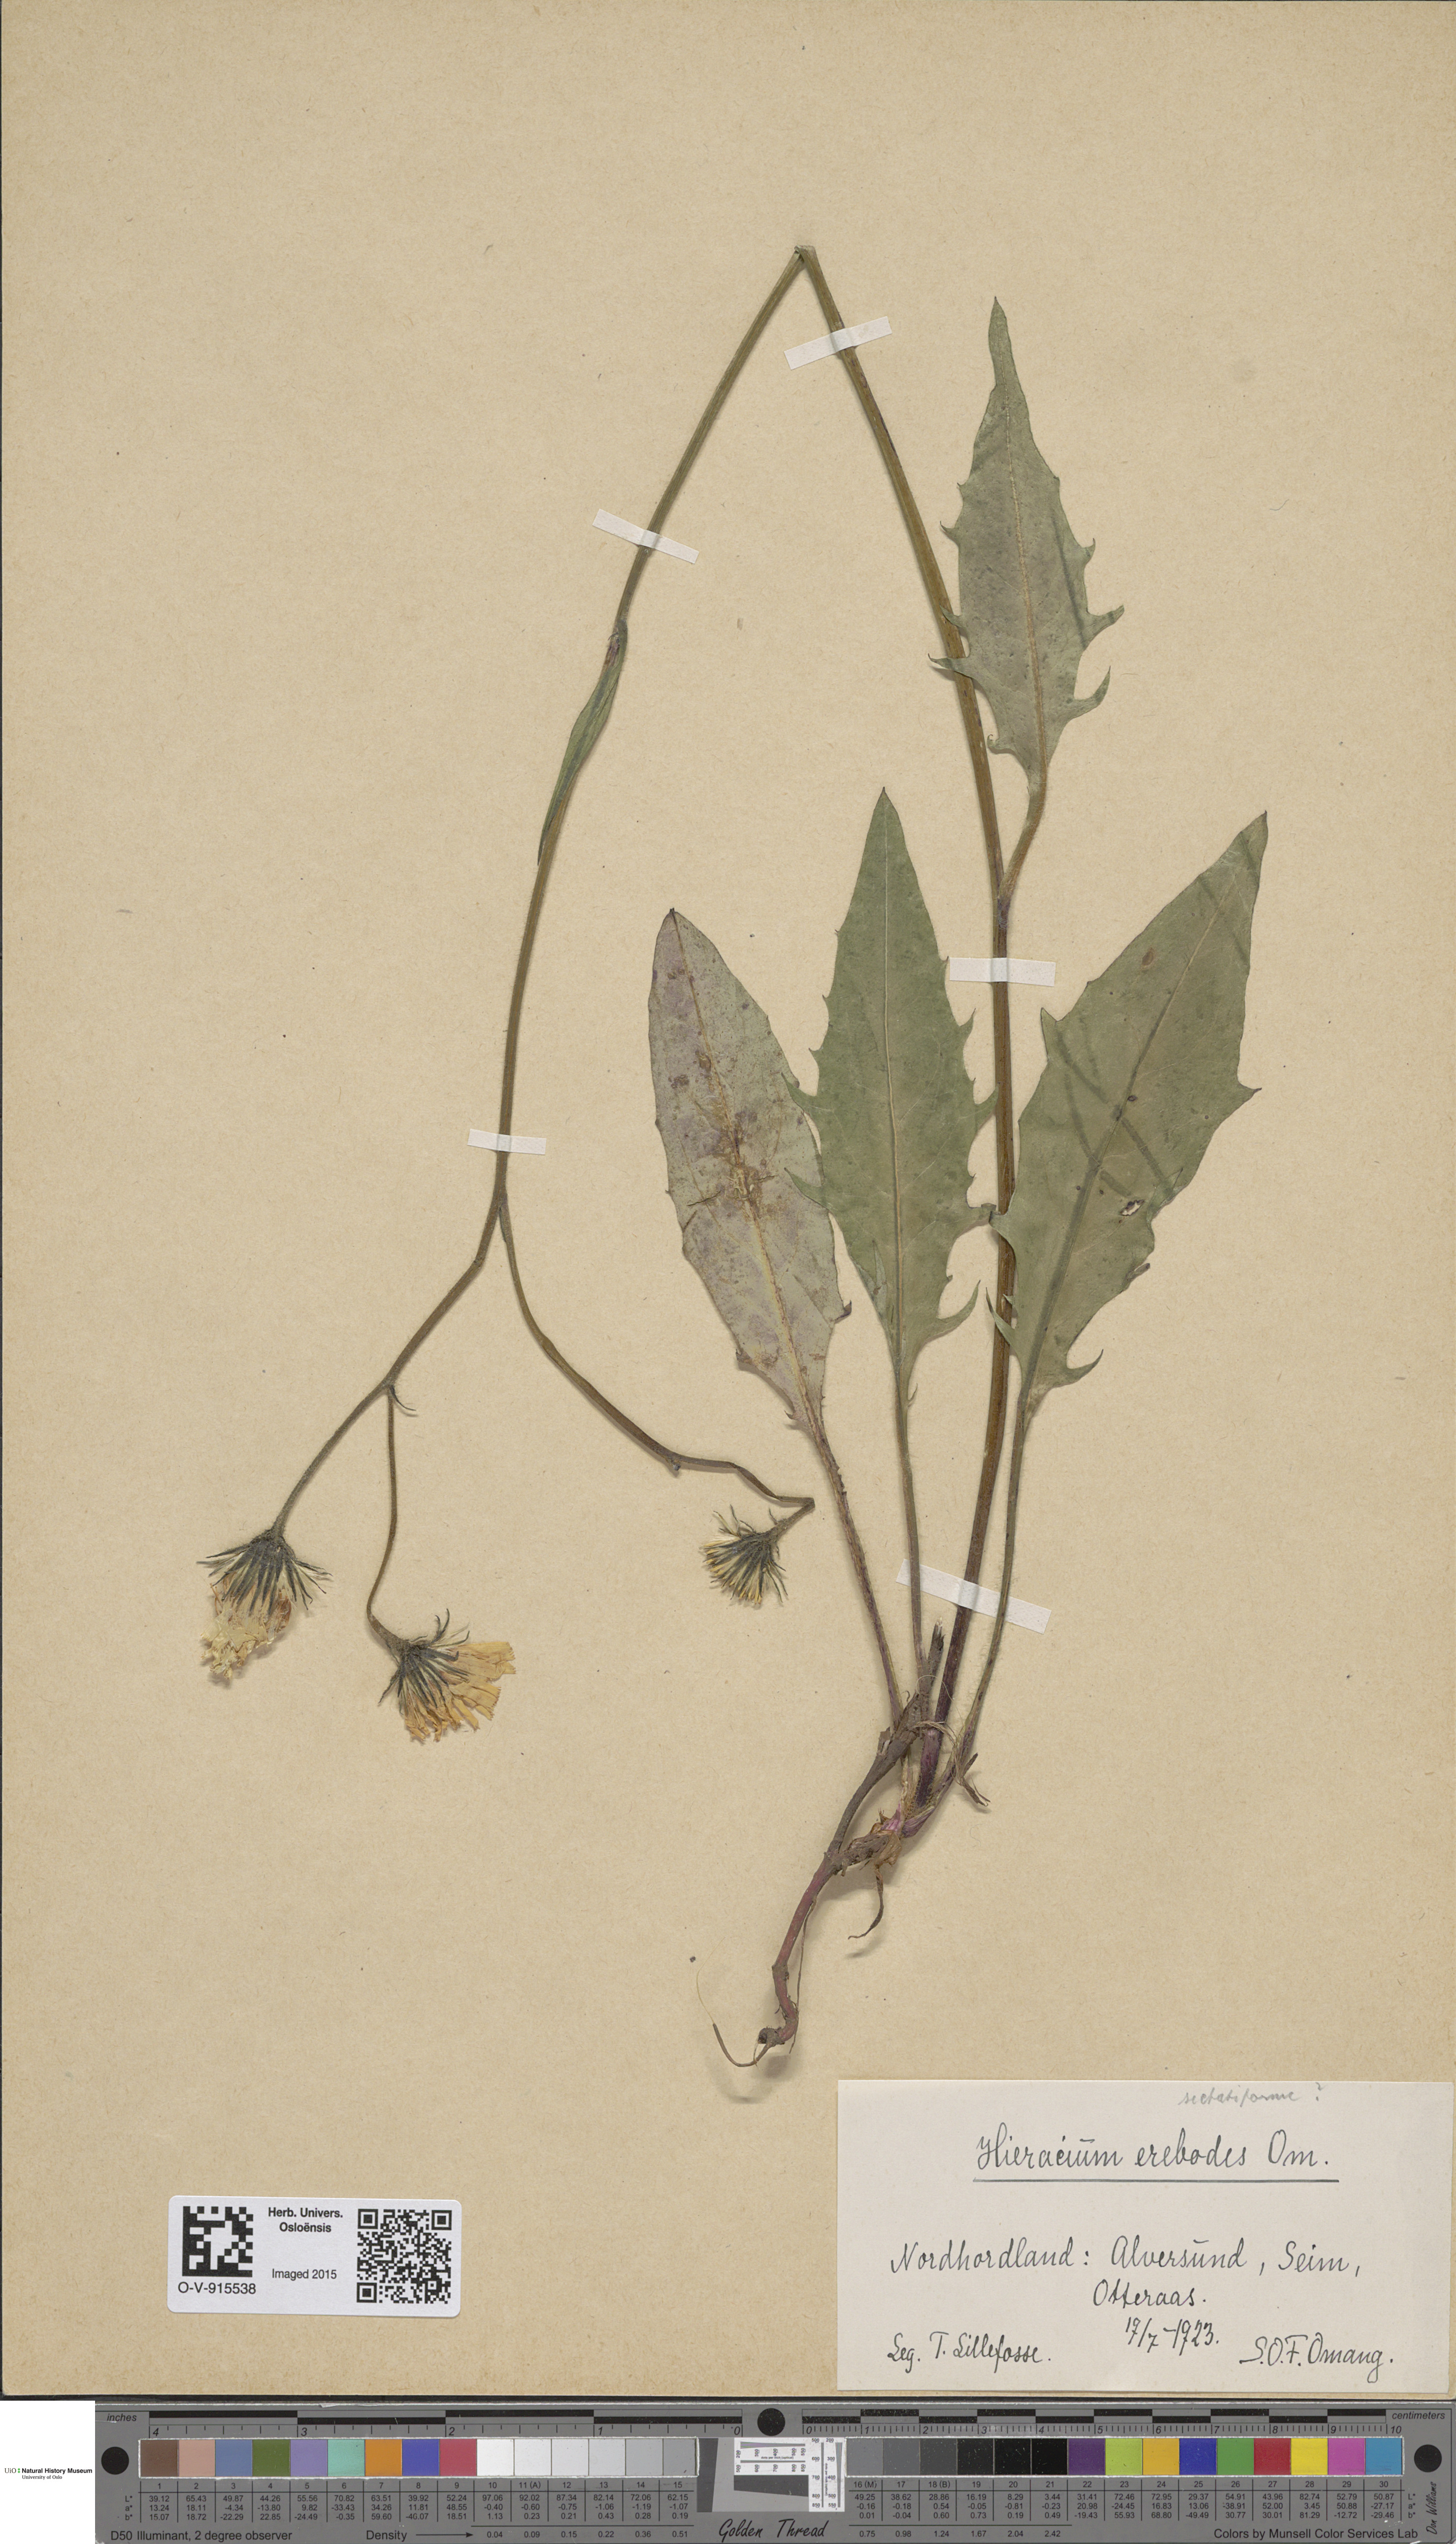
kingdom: Plantae
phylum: Tracheophyta
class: Magnoliopsida
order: Asterales
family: Asteraceae
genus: Hieracium
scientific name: Hieracium
